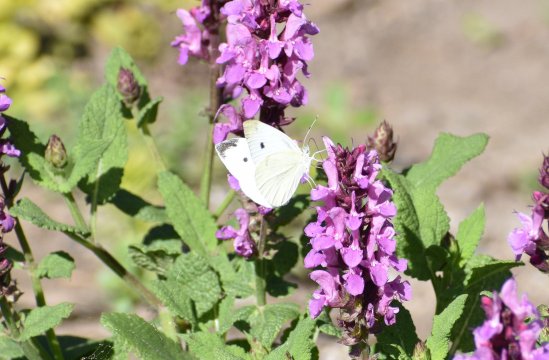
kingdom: Animalia
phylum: Arthropoda
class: Insecta
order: Lepidoptera
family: Pieridae
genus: Pieris
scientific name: Pieris rapae
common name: Cabbage White
